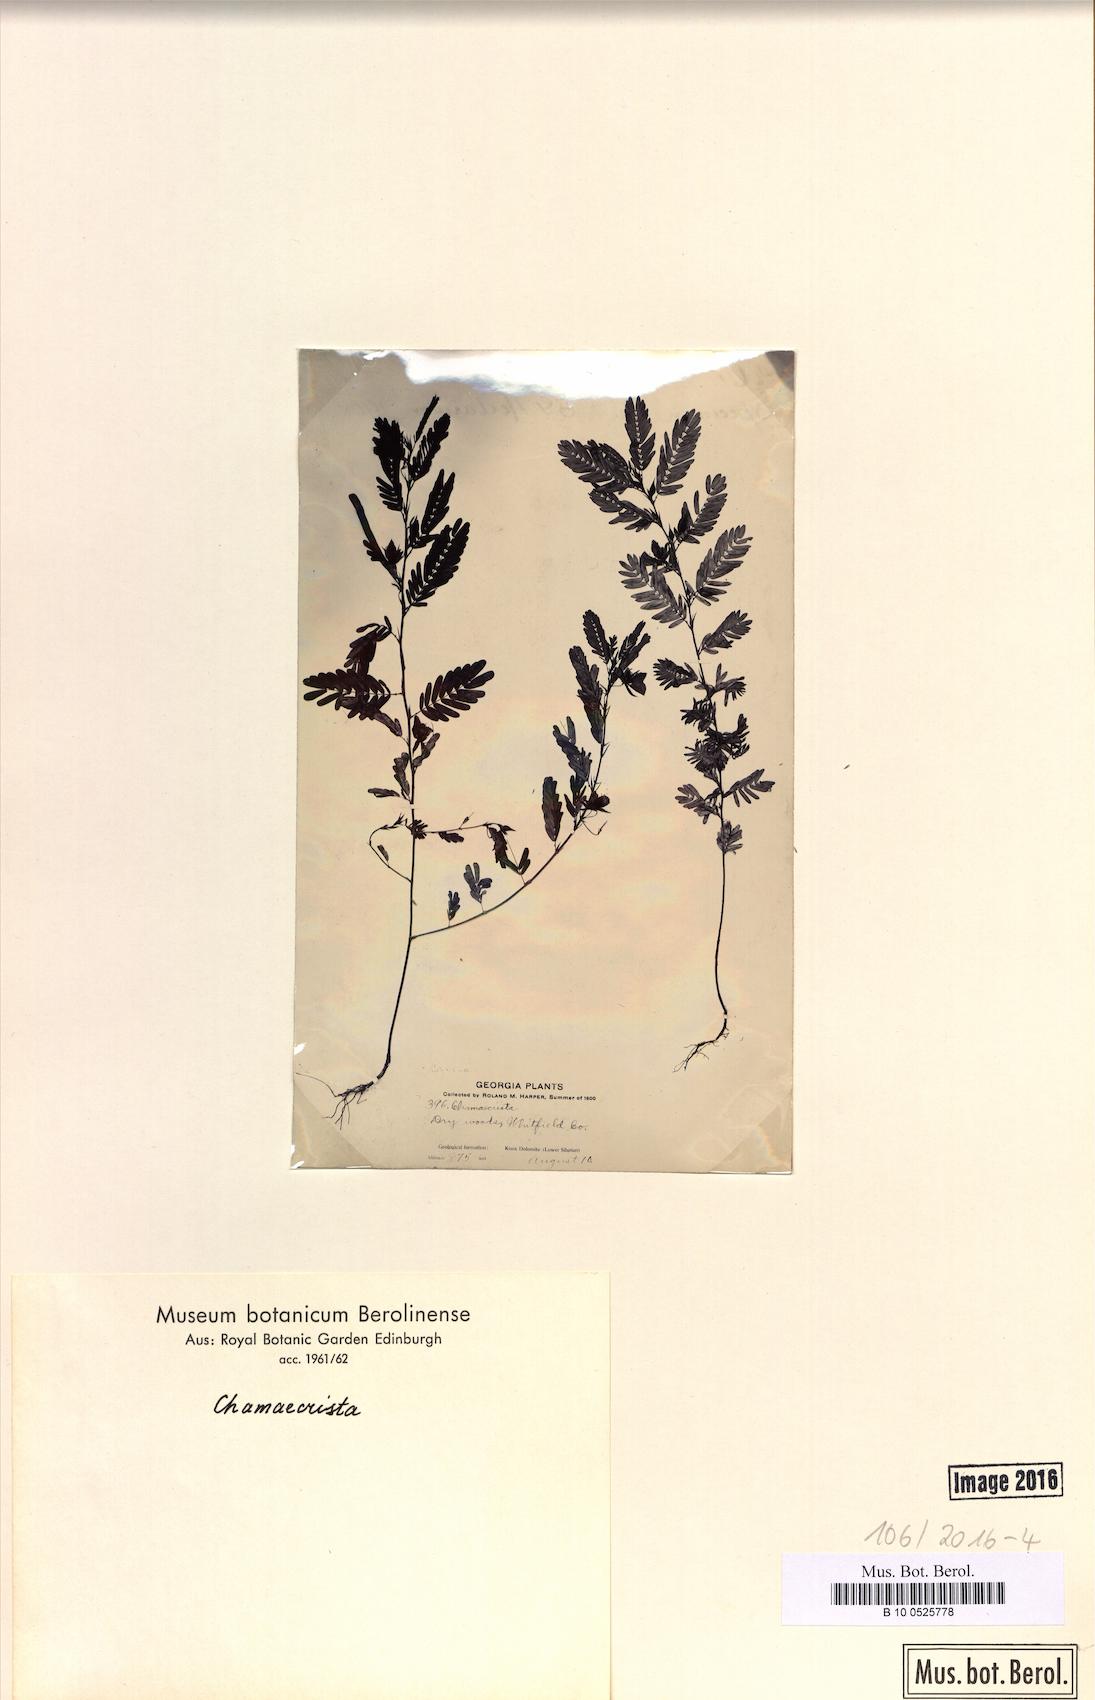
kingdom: Plantae
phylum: Tracheophyta
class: Magnoliopsida
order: Fabales
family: Fabaceae
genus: Chamaecrista
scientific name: Chamaecrista
